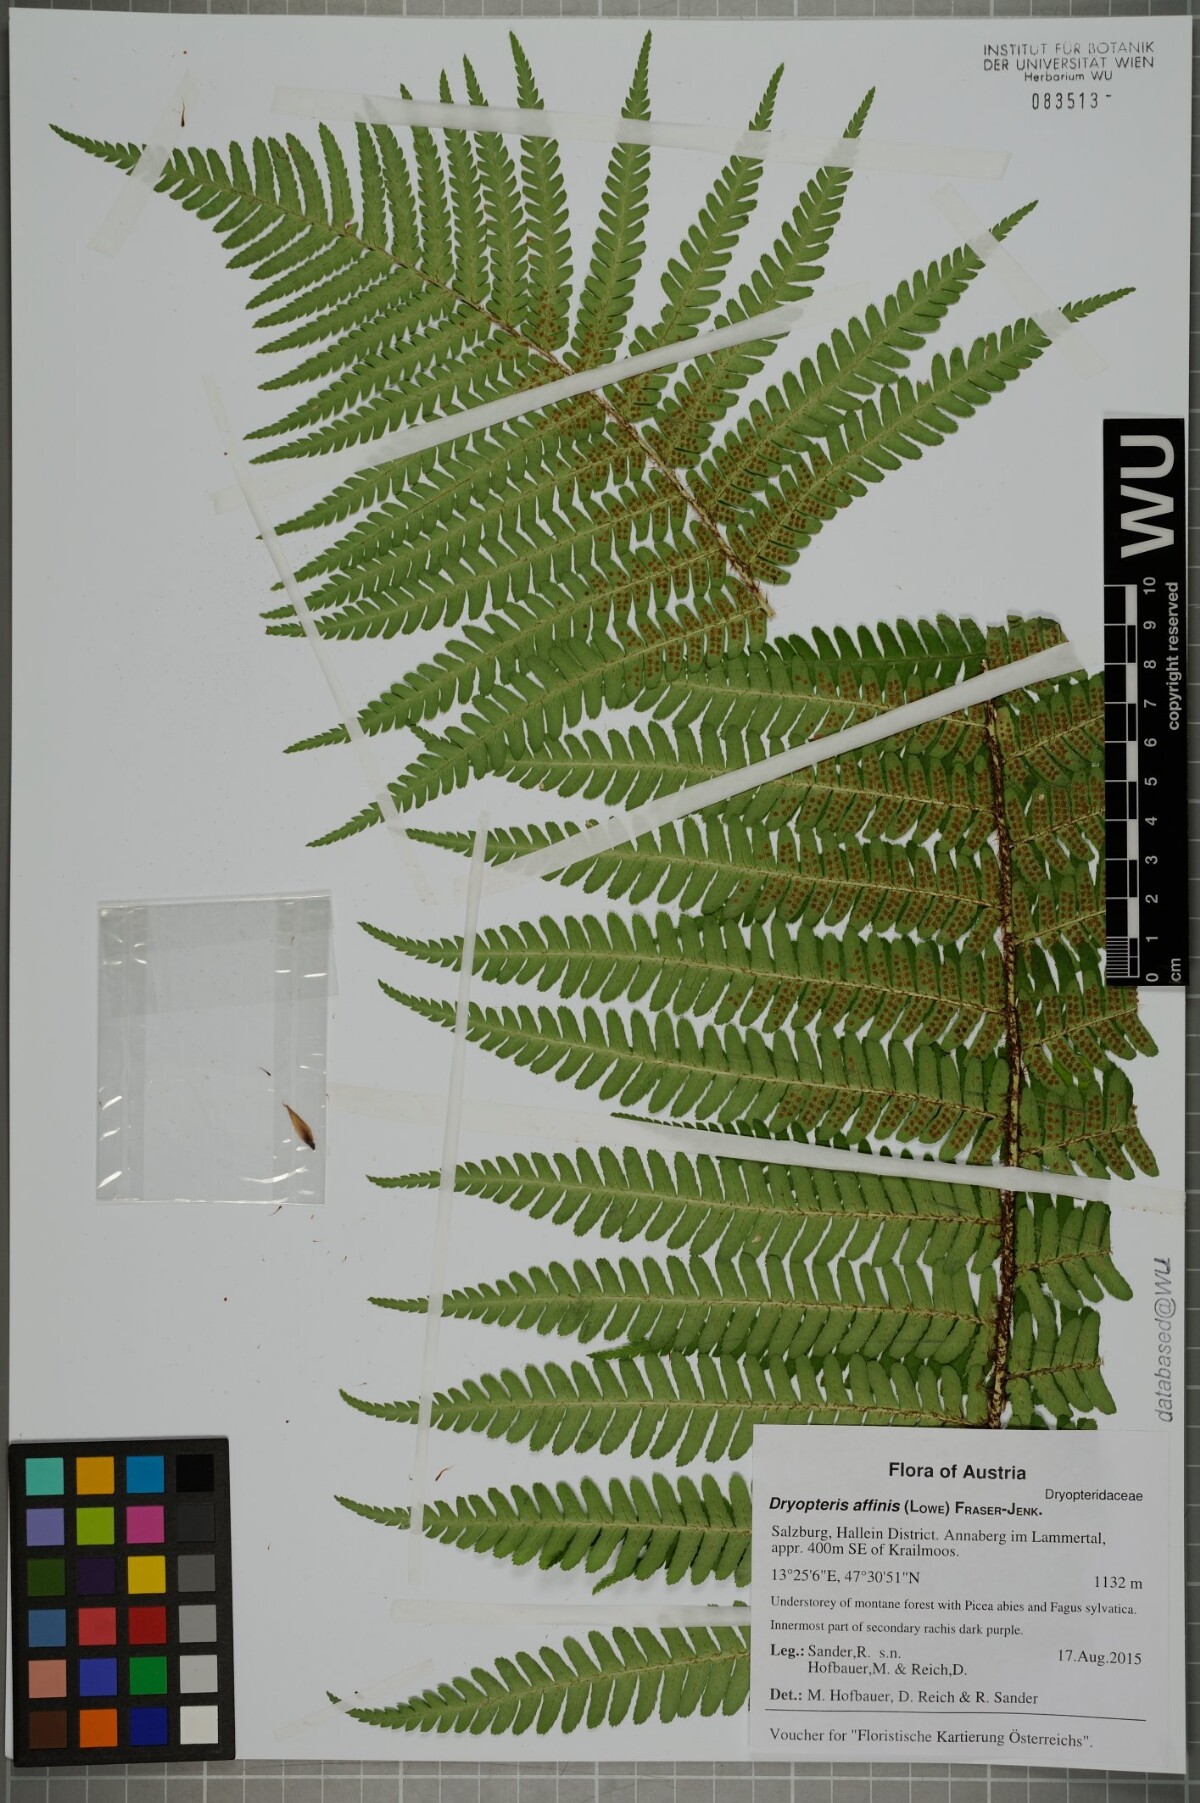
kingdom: Plantae
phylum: Tracheophyta
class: Polypodiopsida
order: Polypodiales
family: Dryopteridaceae
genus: Dryopteris
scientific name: Dryopteris affinis
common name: Scaly male fern
